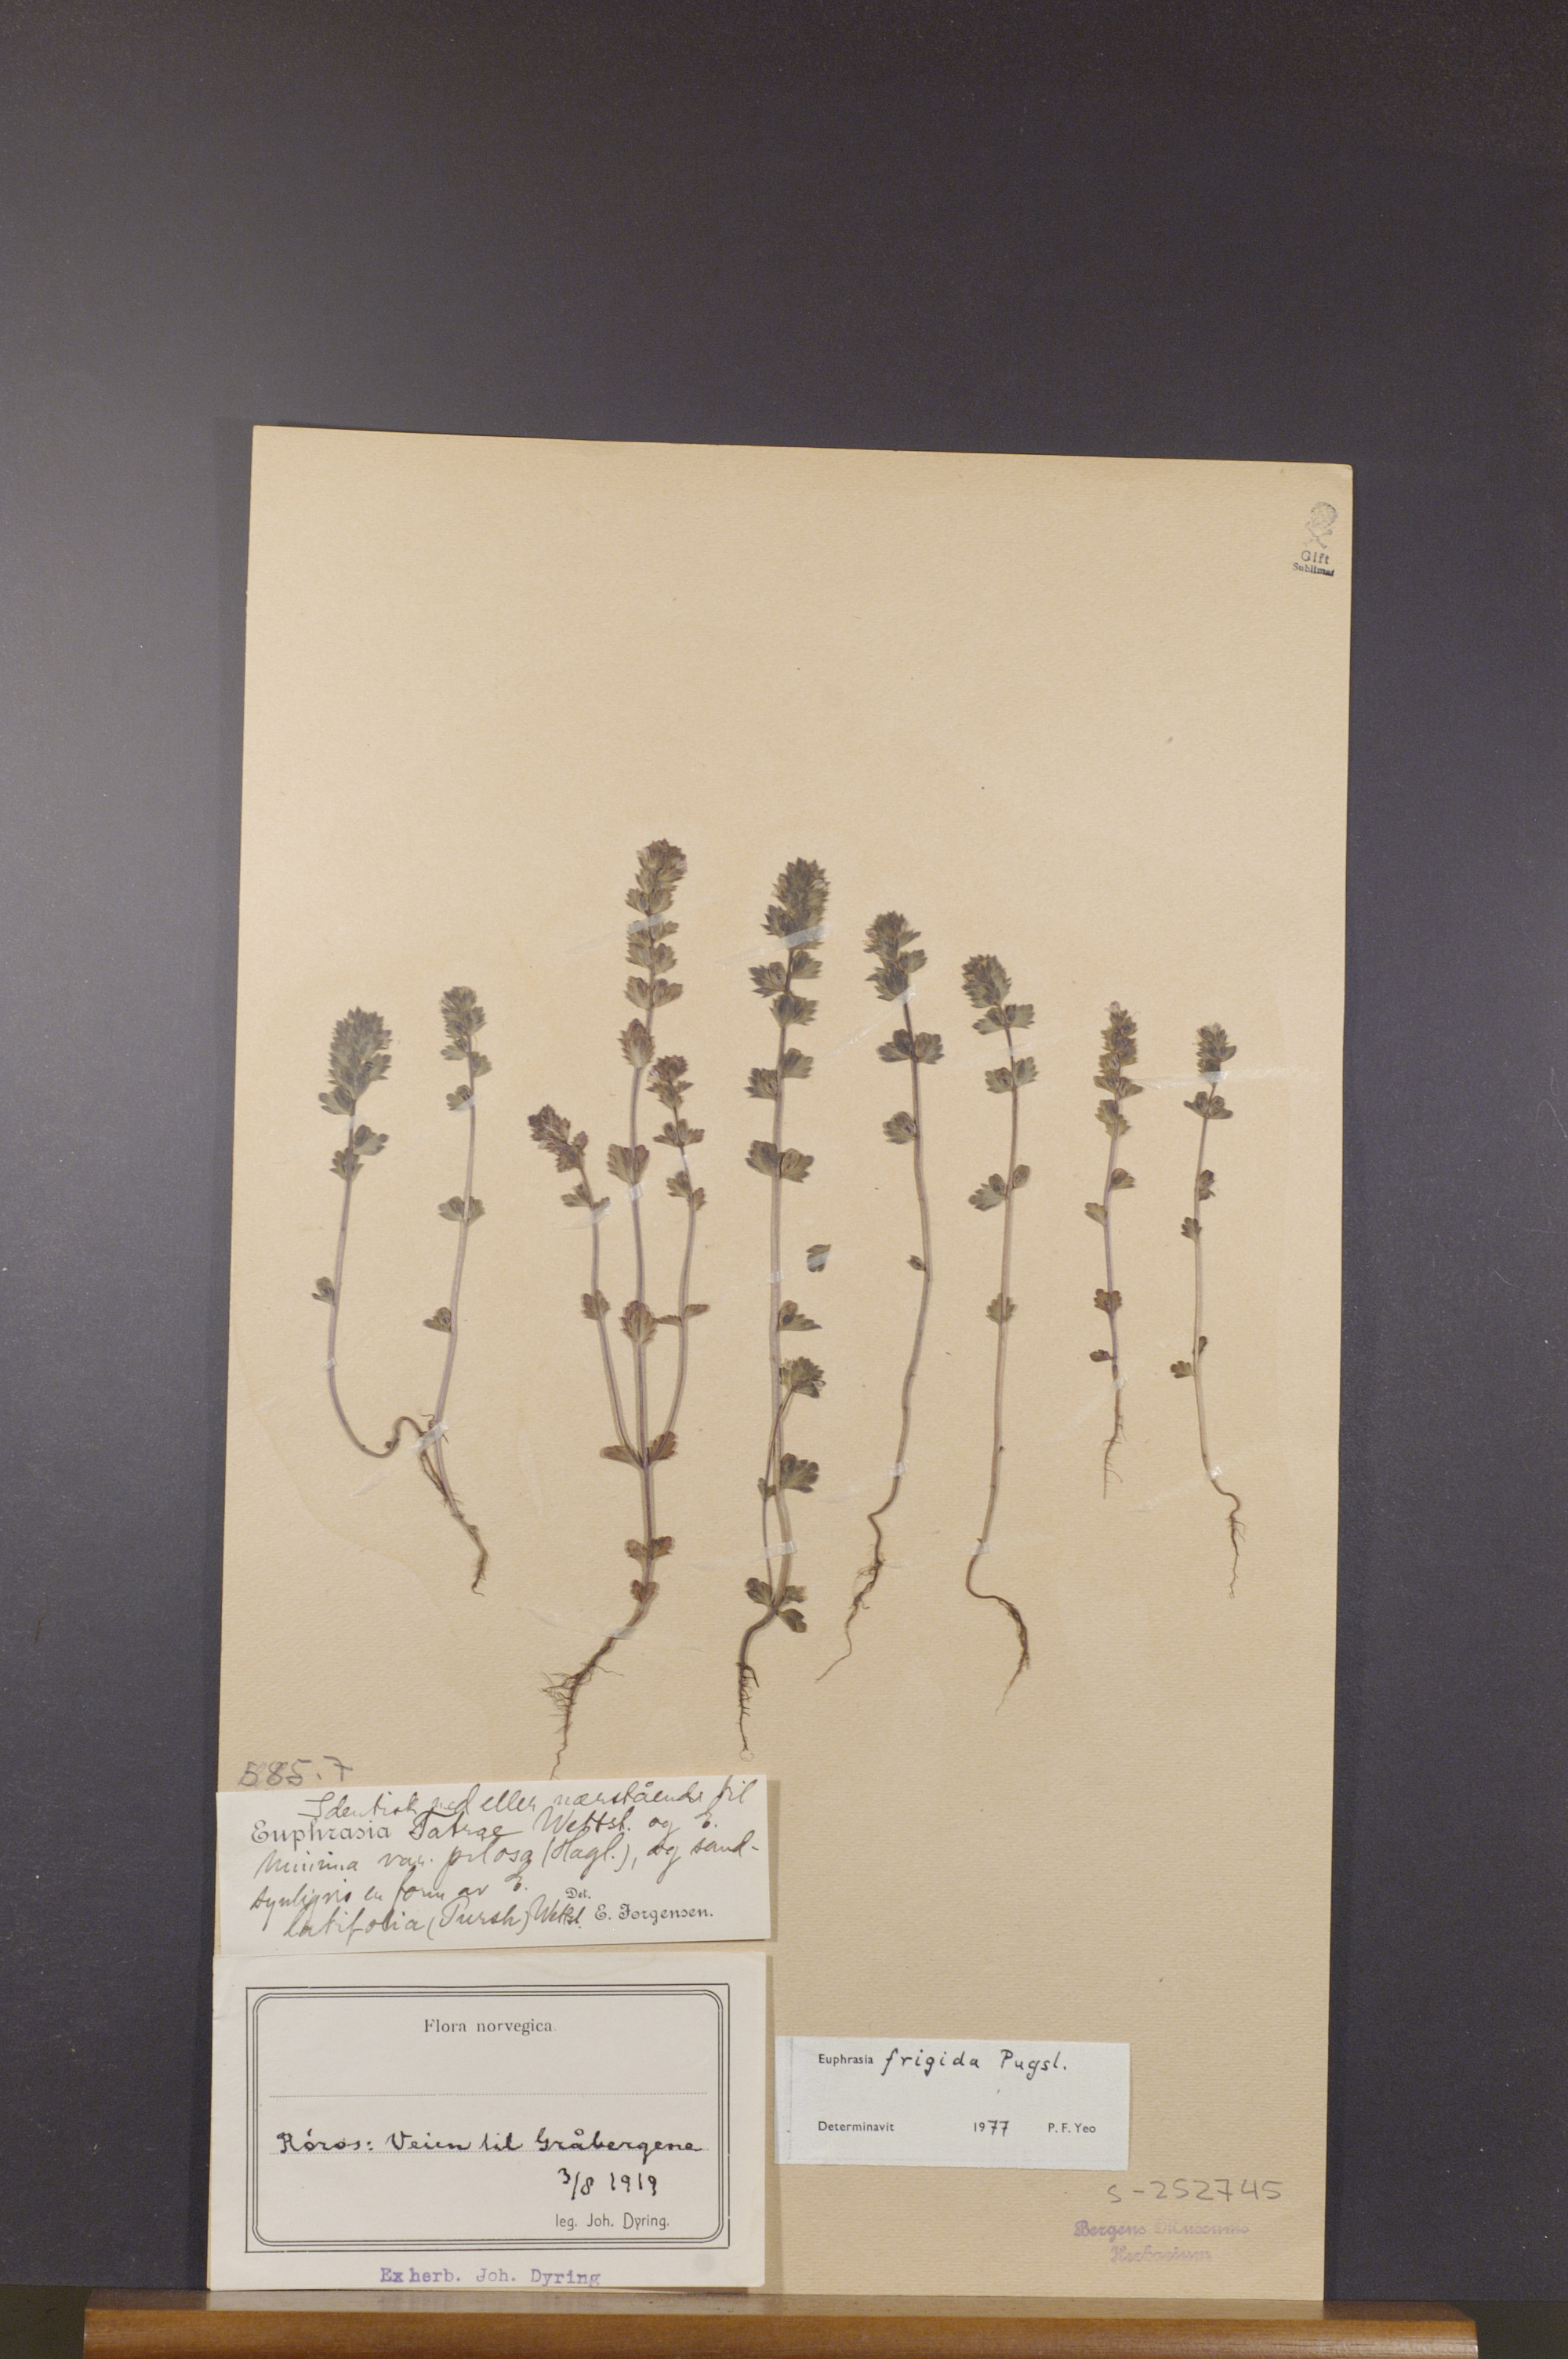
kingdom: Plantae
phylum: Tracheophyta
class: Magnoliopsida
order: Lamiales
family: Orobanchaceae
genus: Euphrasia
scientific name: Euphrasia frigida
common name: An eyebright
